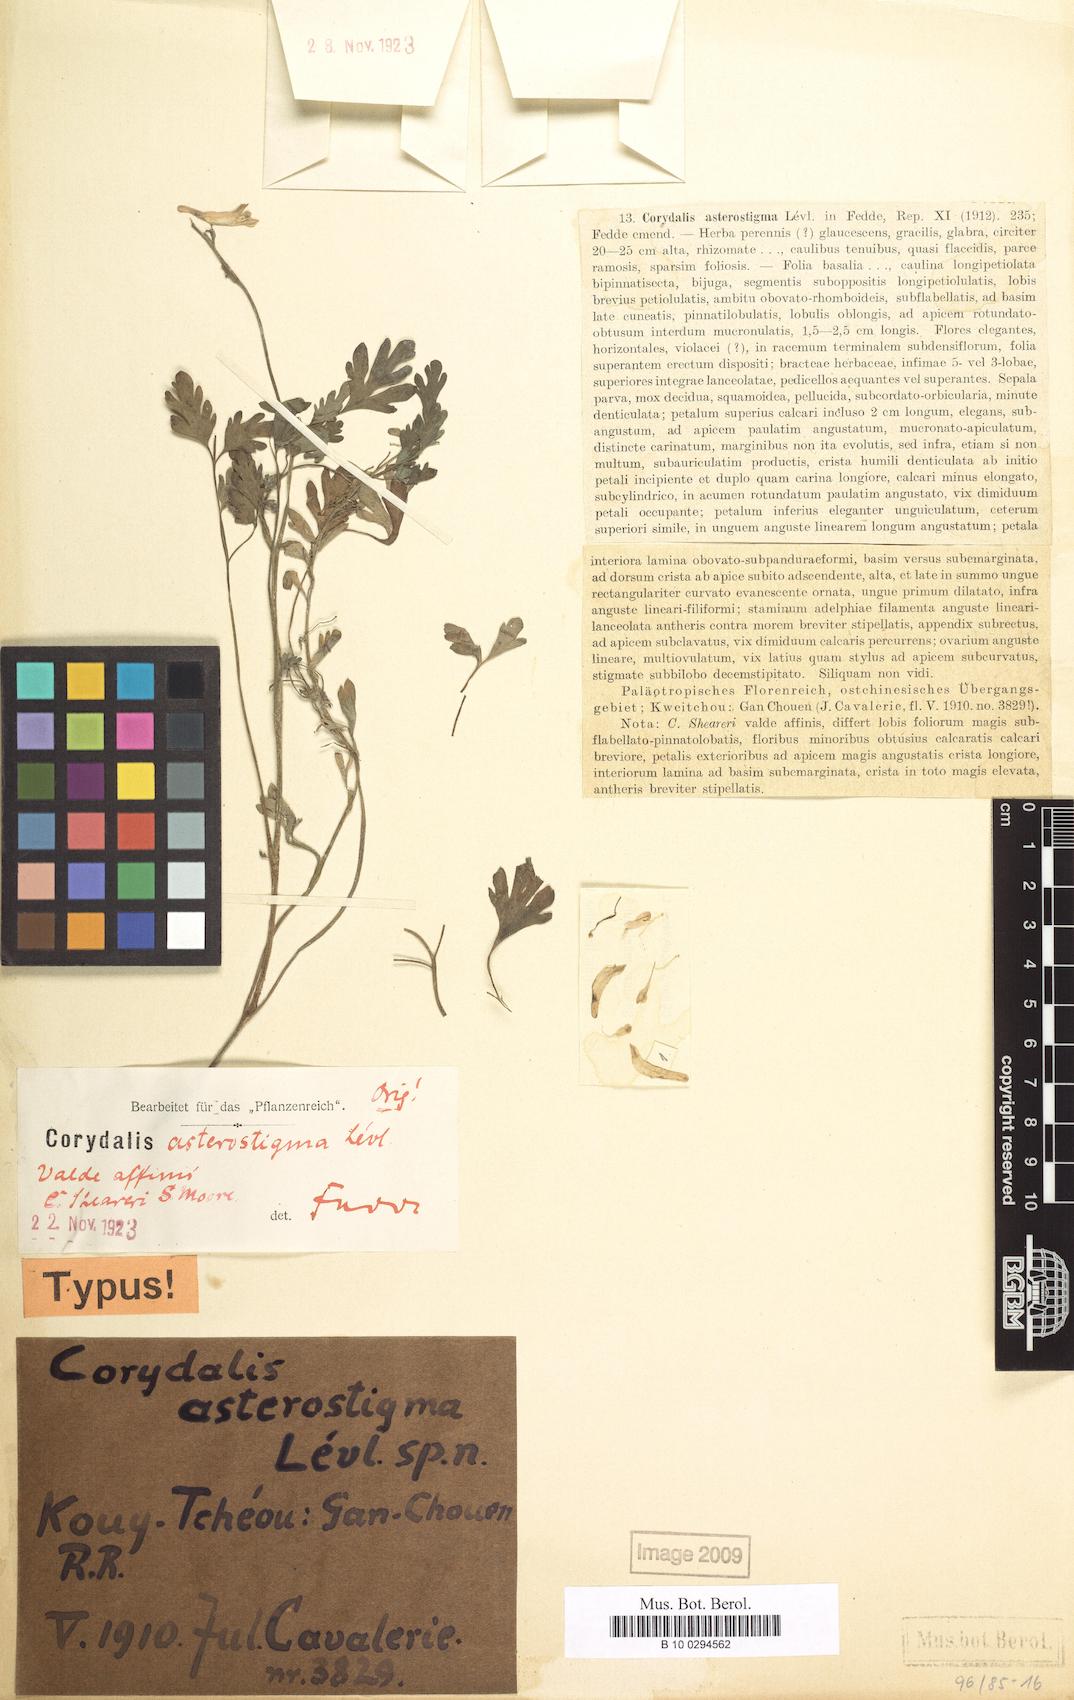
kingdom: Plantae
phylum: Tracheophyta
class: Magnoliopsida
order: Ranunculales
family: Papaveraceae
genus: Corydalis
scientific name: Corydalis duclouxii
